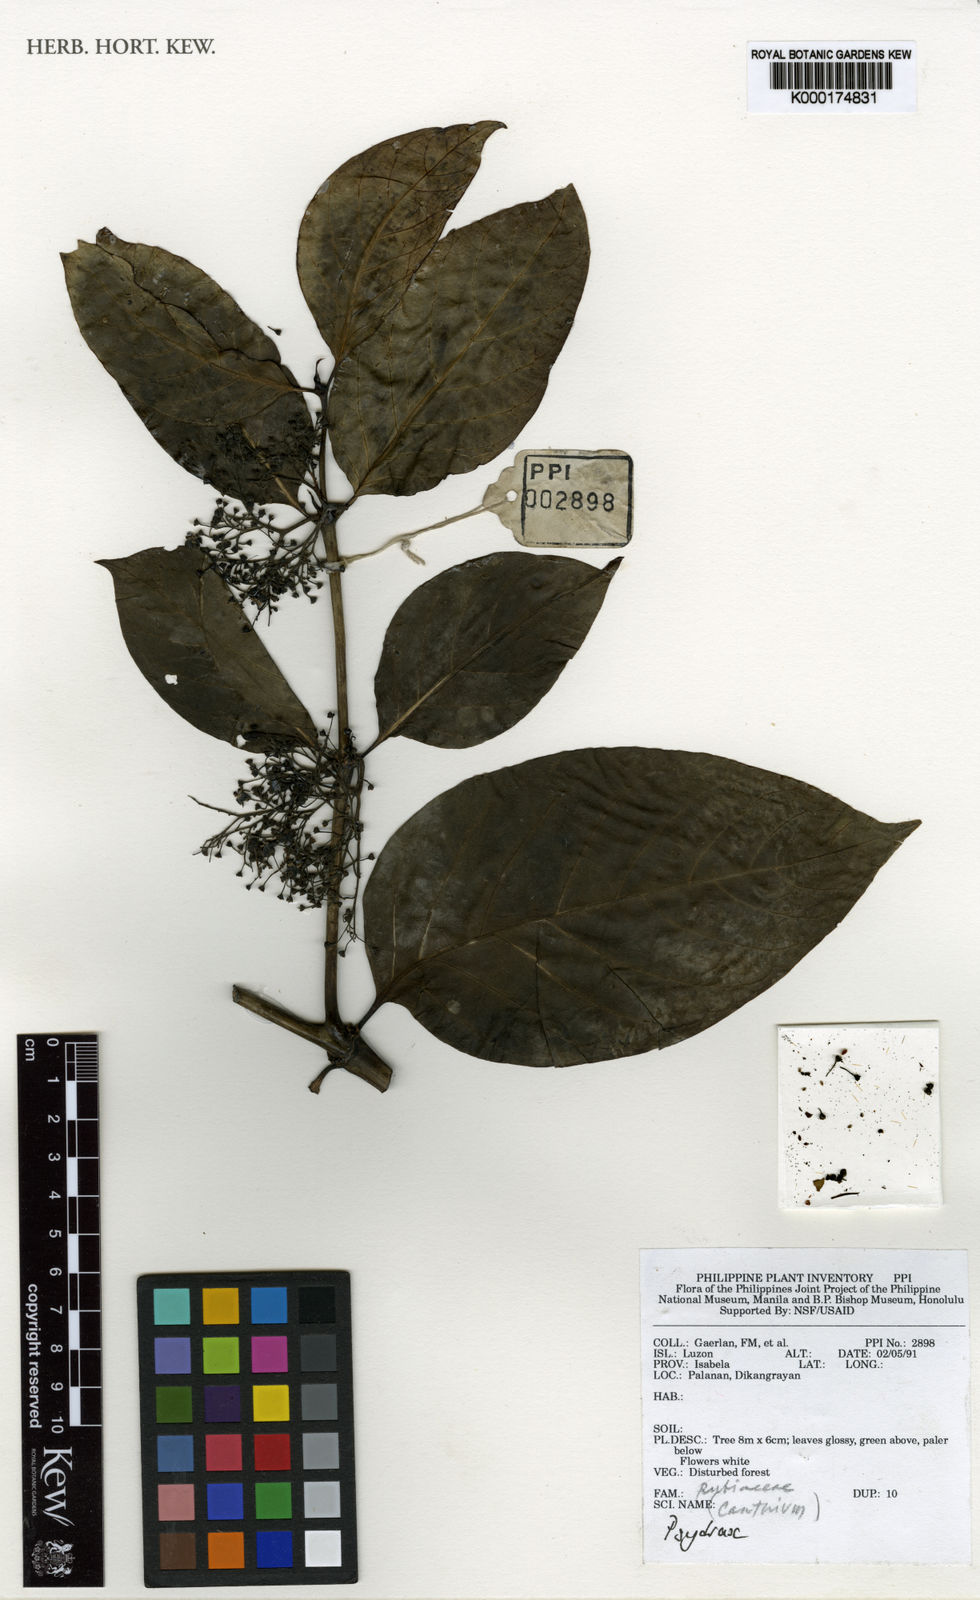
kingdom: Plantae
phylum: Tracheophyta
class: Magnoliopsida
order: Gentianales
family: Rubiaceae
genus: Psydrax
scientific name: Psydrax
